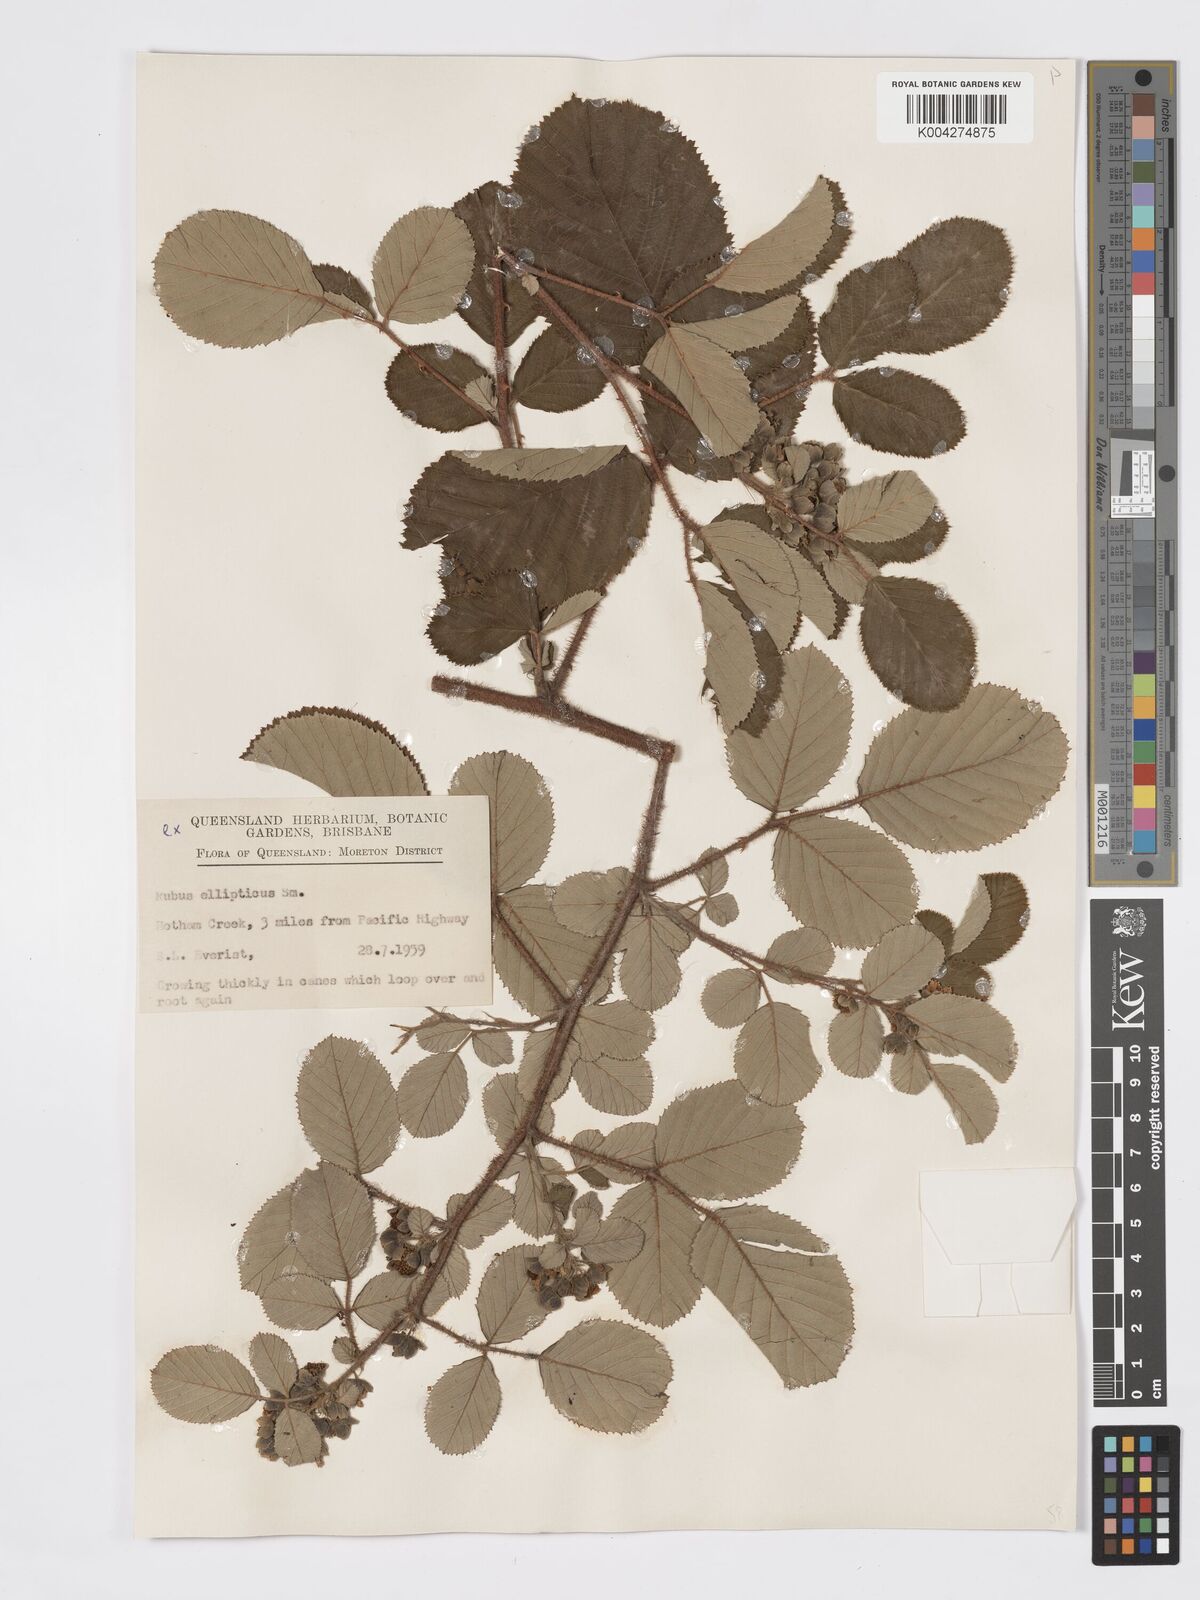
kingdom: Plantae
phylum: Tracheophyta
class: Magnoliopsida
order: Rosales
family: Rosaceae
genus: Rubus
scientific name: Rubus ellipticus
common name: Cheeseberry
